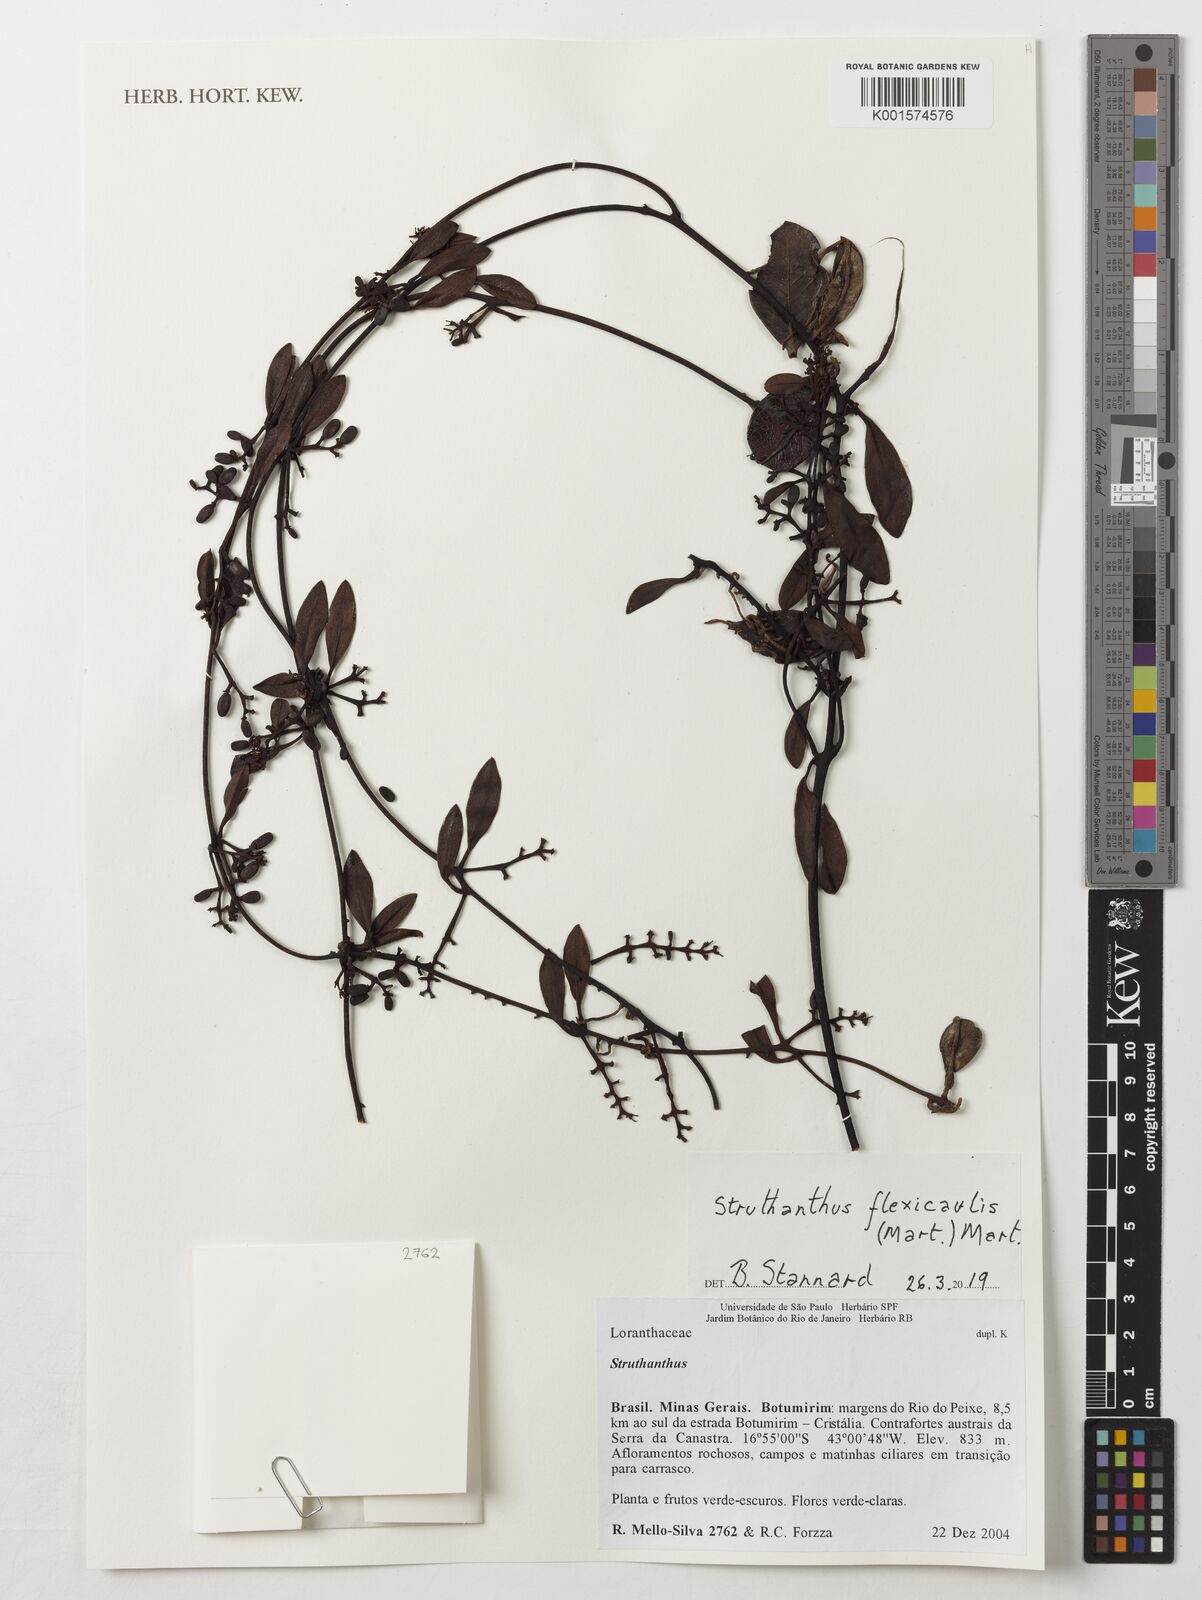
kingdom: Plantae
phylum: Tracheophyta
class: Magnoliopsida
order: Santalales
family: Loranthaceae
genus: Struthanthus
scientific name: Struthanthus flexicaulis
